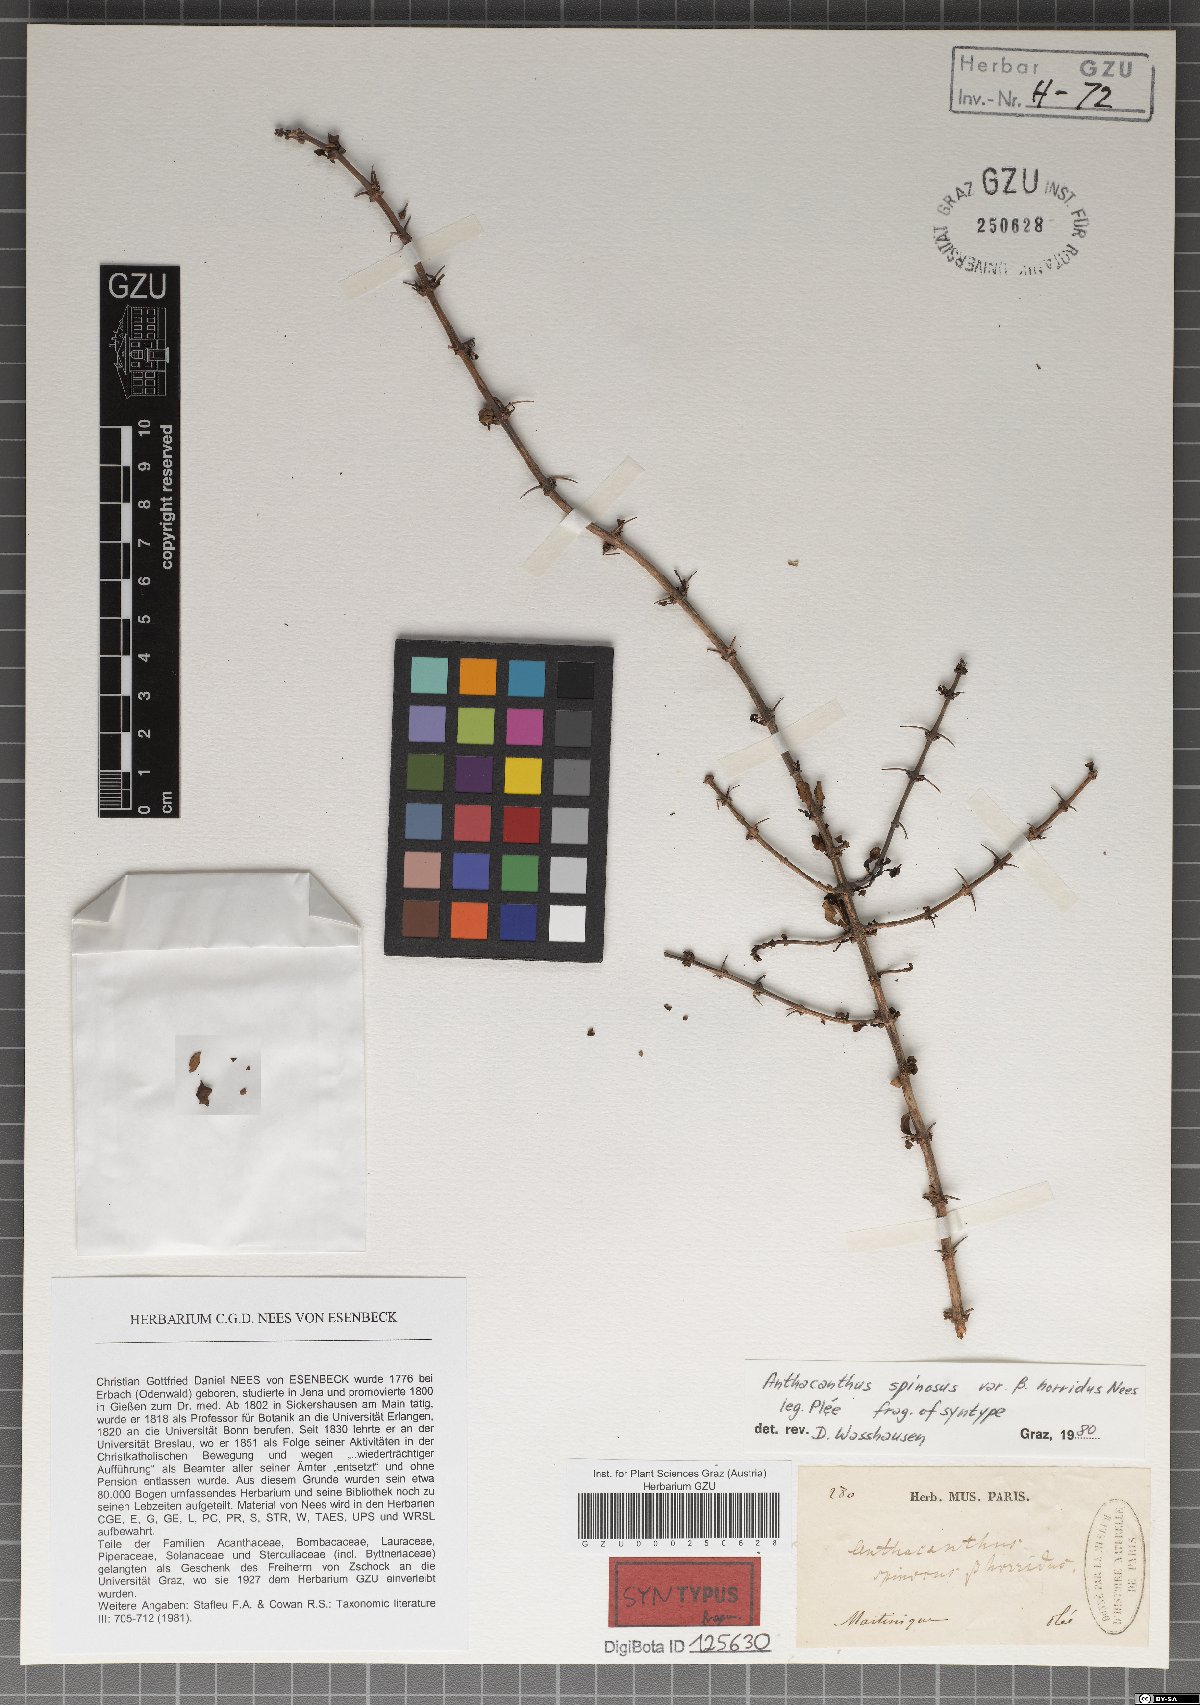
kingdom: Plantae
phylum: Tracheophyta
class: Magnoliopsida
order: Lamiales
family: Acanthaceae
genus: Oplonia
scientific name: Oplonia spinosa
